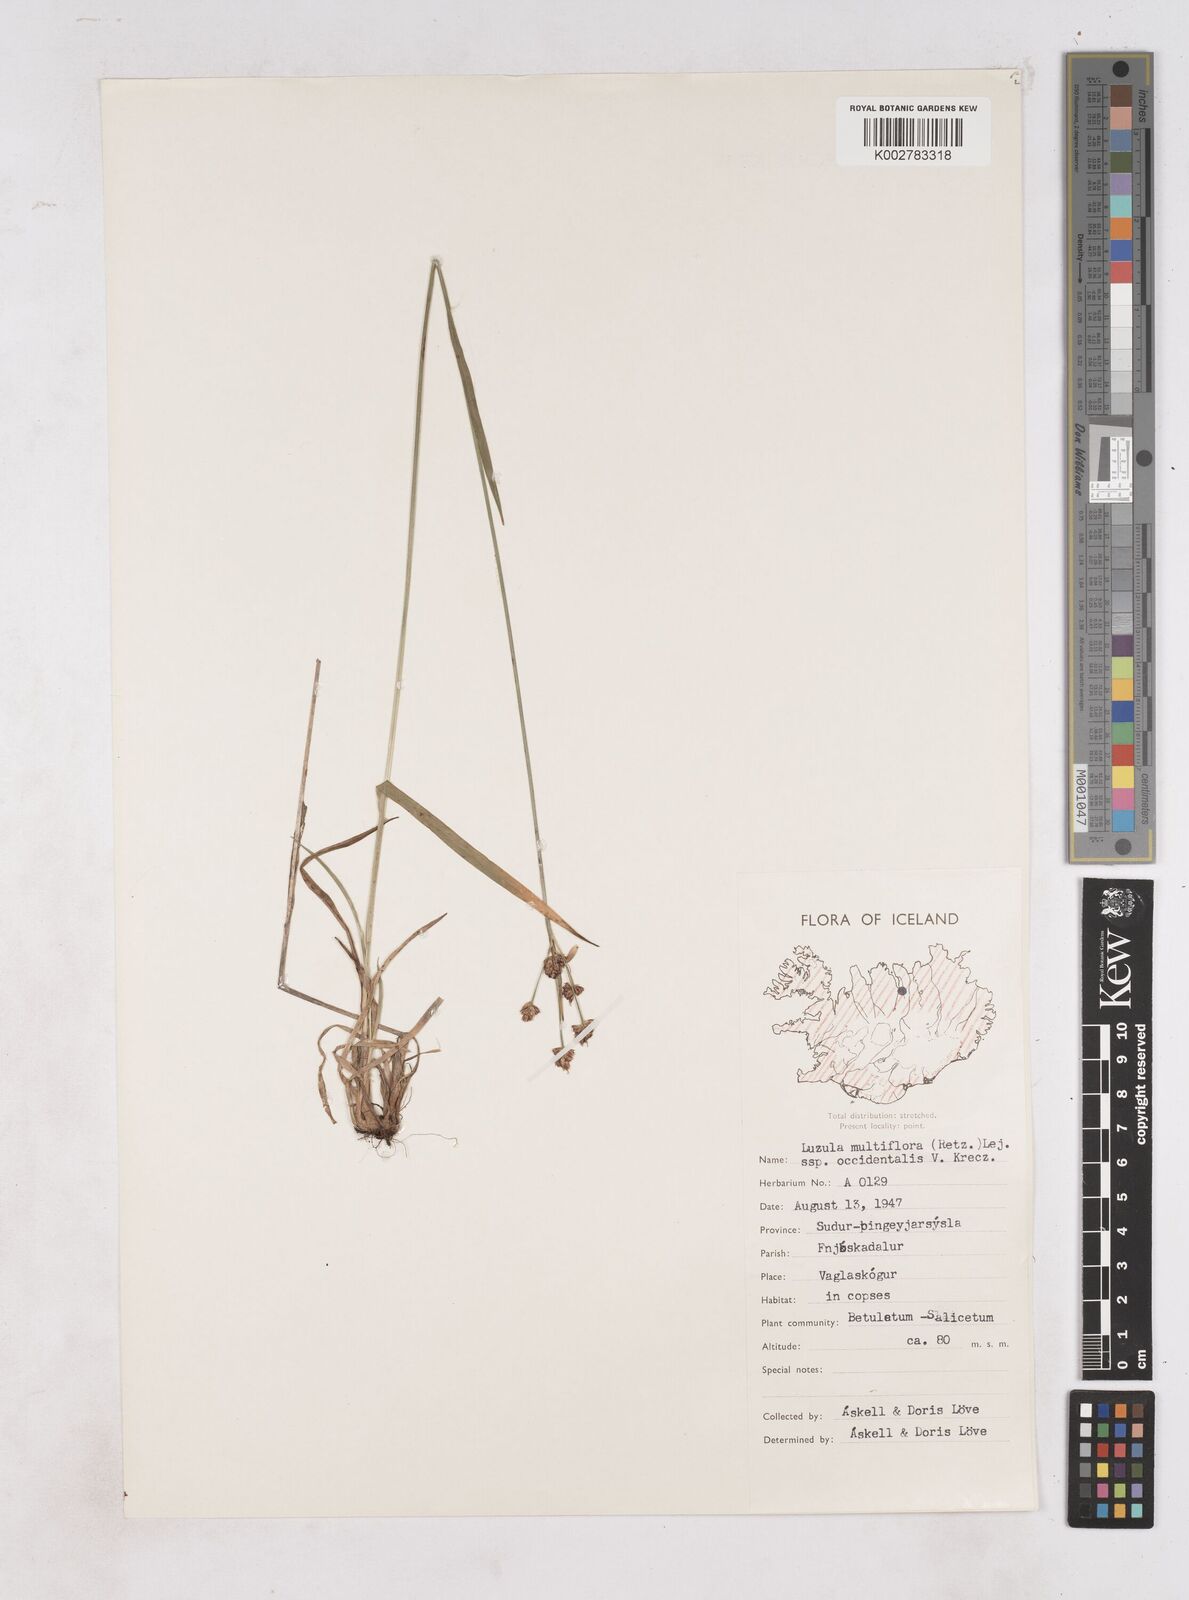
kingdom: Plantae
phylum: Tracheophyta
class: Liliopsida
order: Poales
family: Juncaceae
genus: Luzula
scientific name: Luzula multiflora
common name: Heath wood-rush
